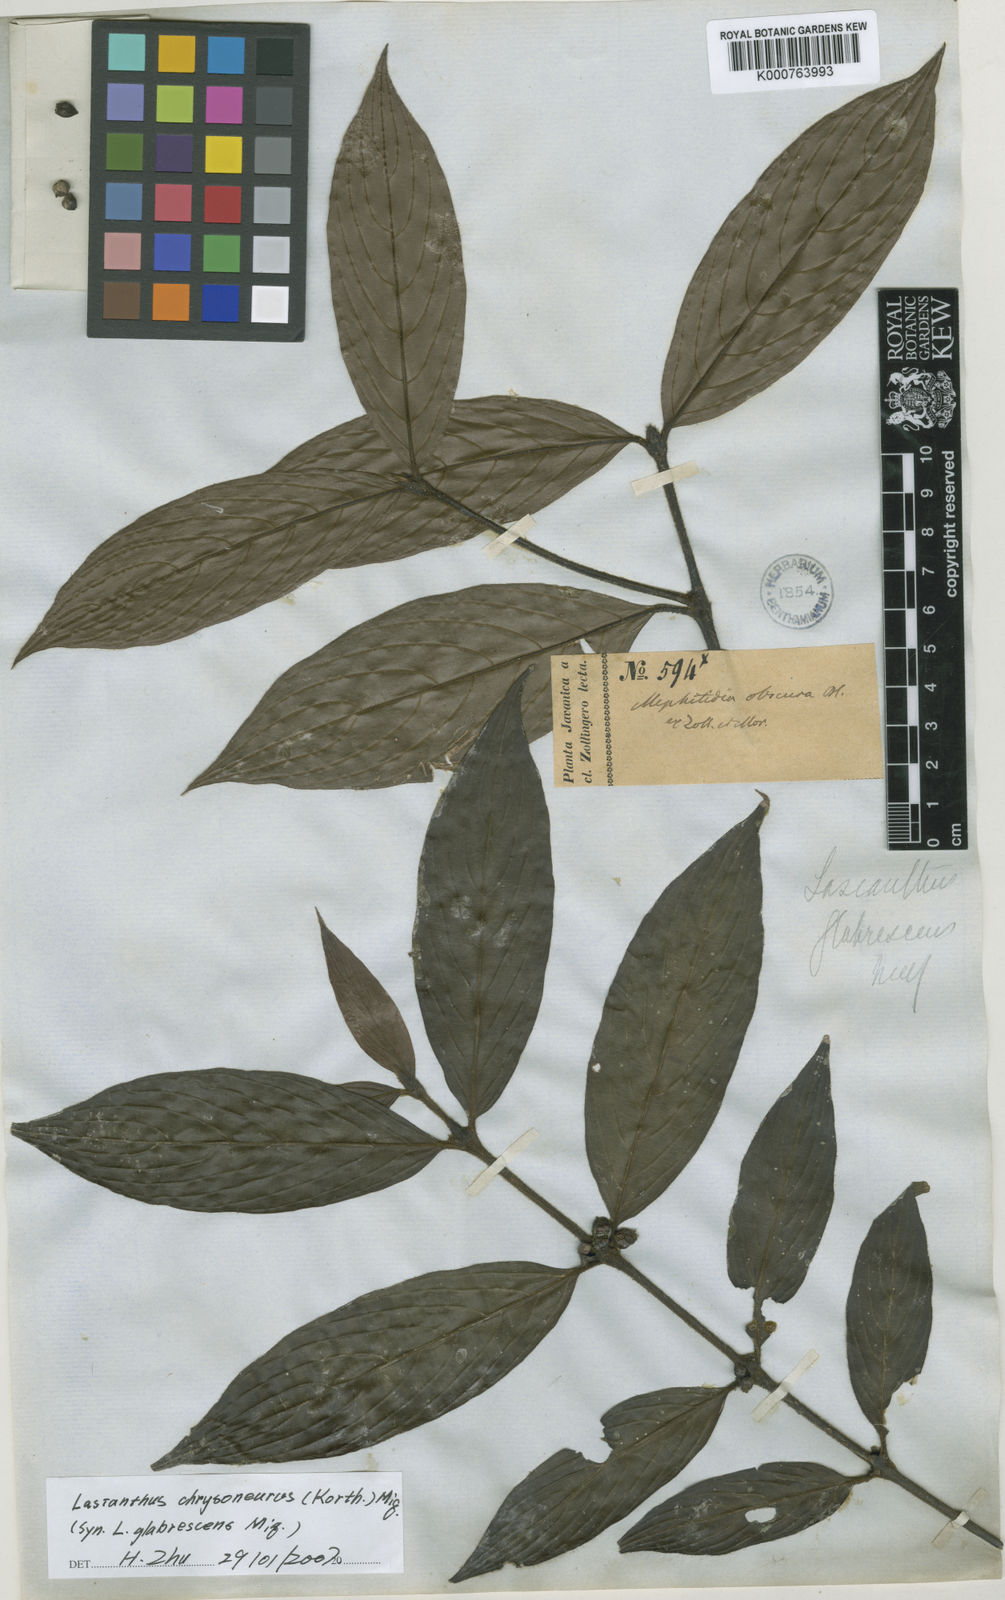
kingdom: Plantae
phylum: Tracheophyta
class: Magnoliopsida
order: Gentianales
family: Rubiaceae
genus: Lasianthus
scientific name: Lasianthus chrysoneurus
